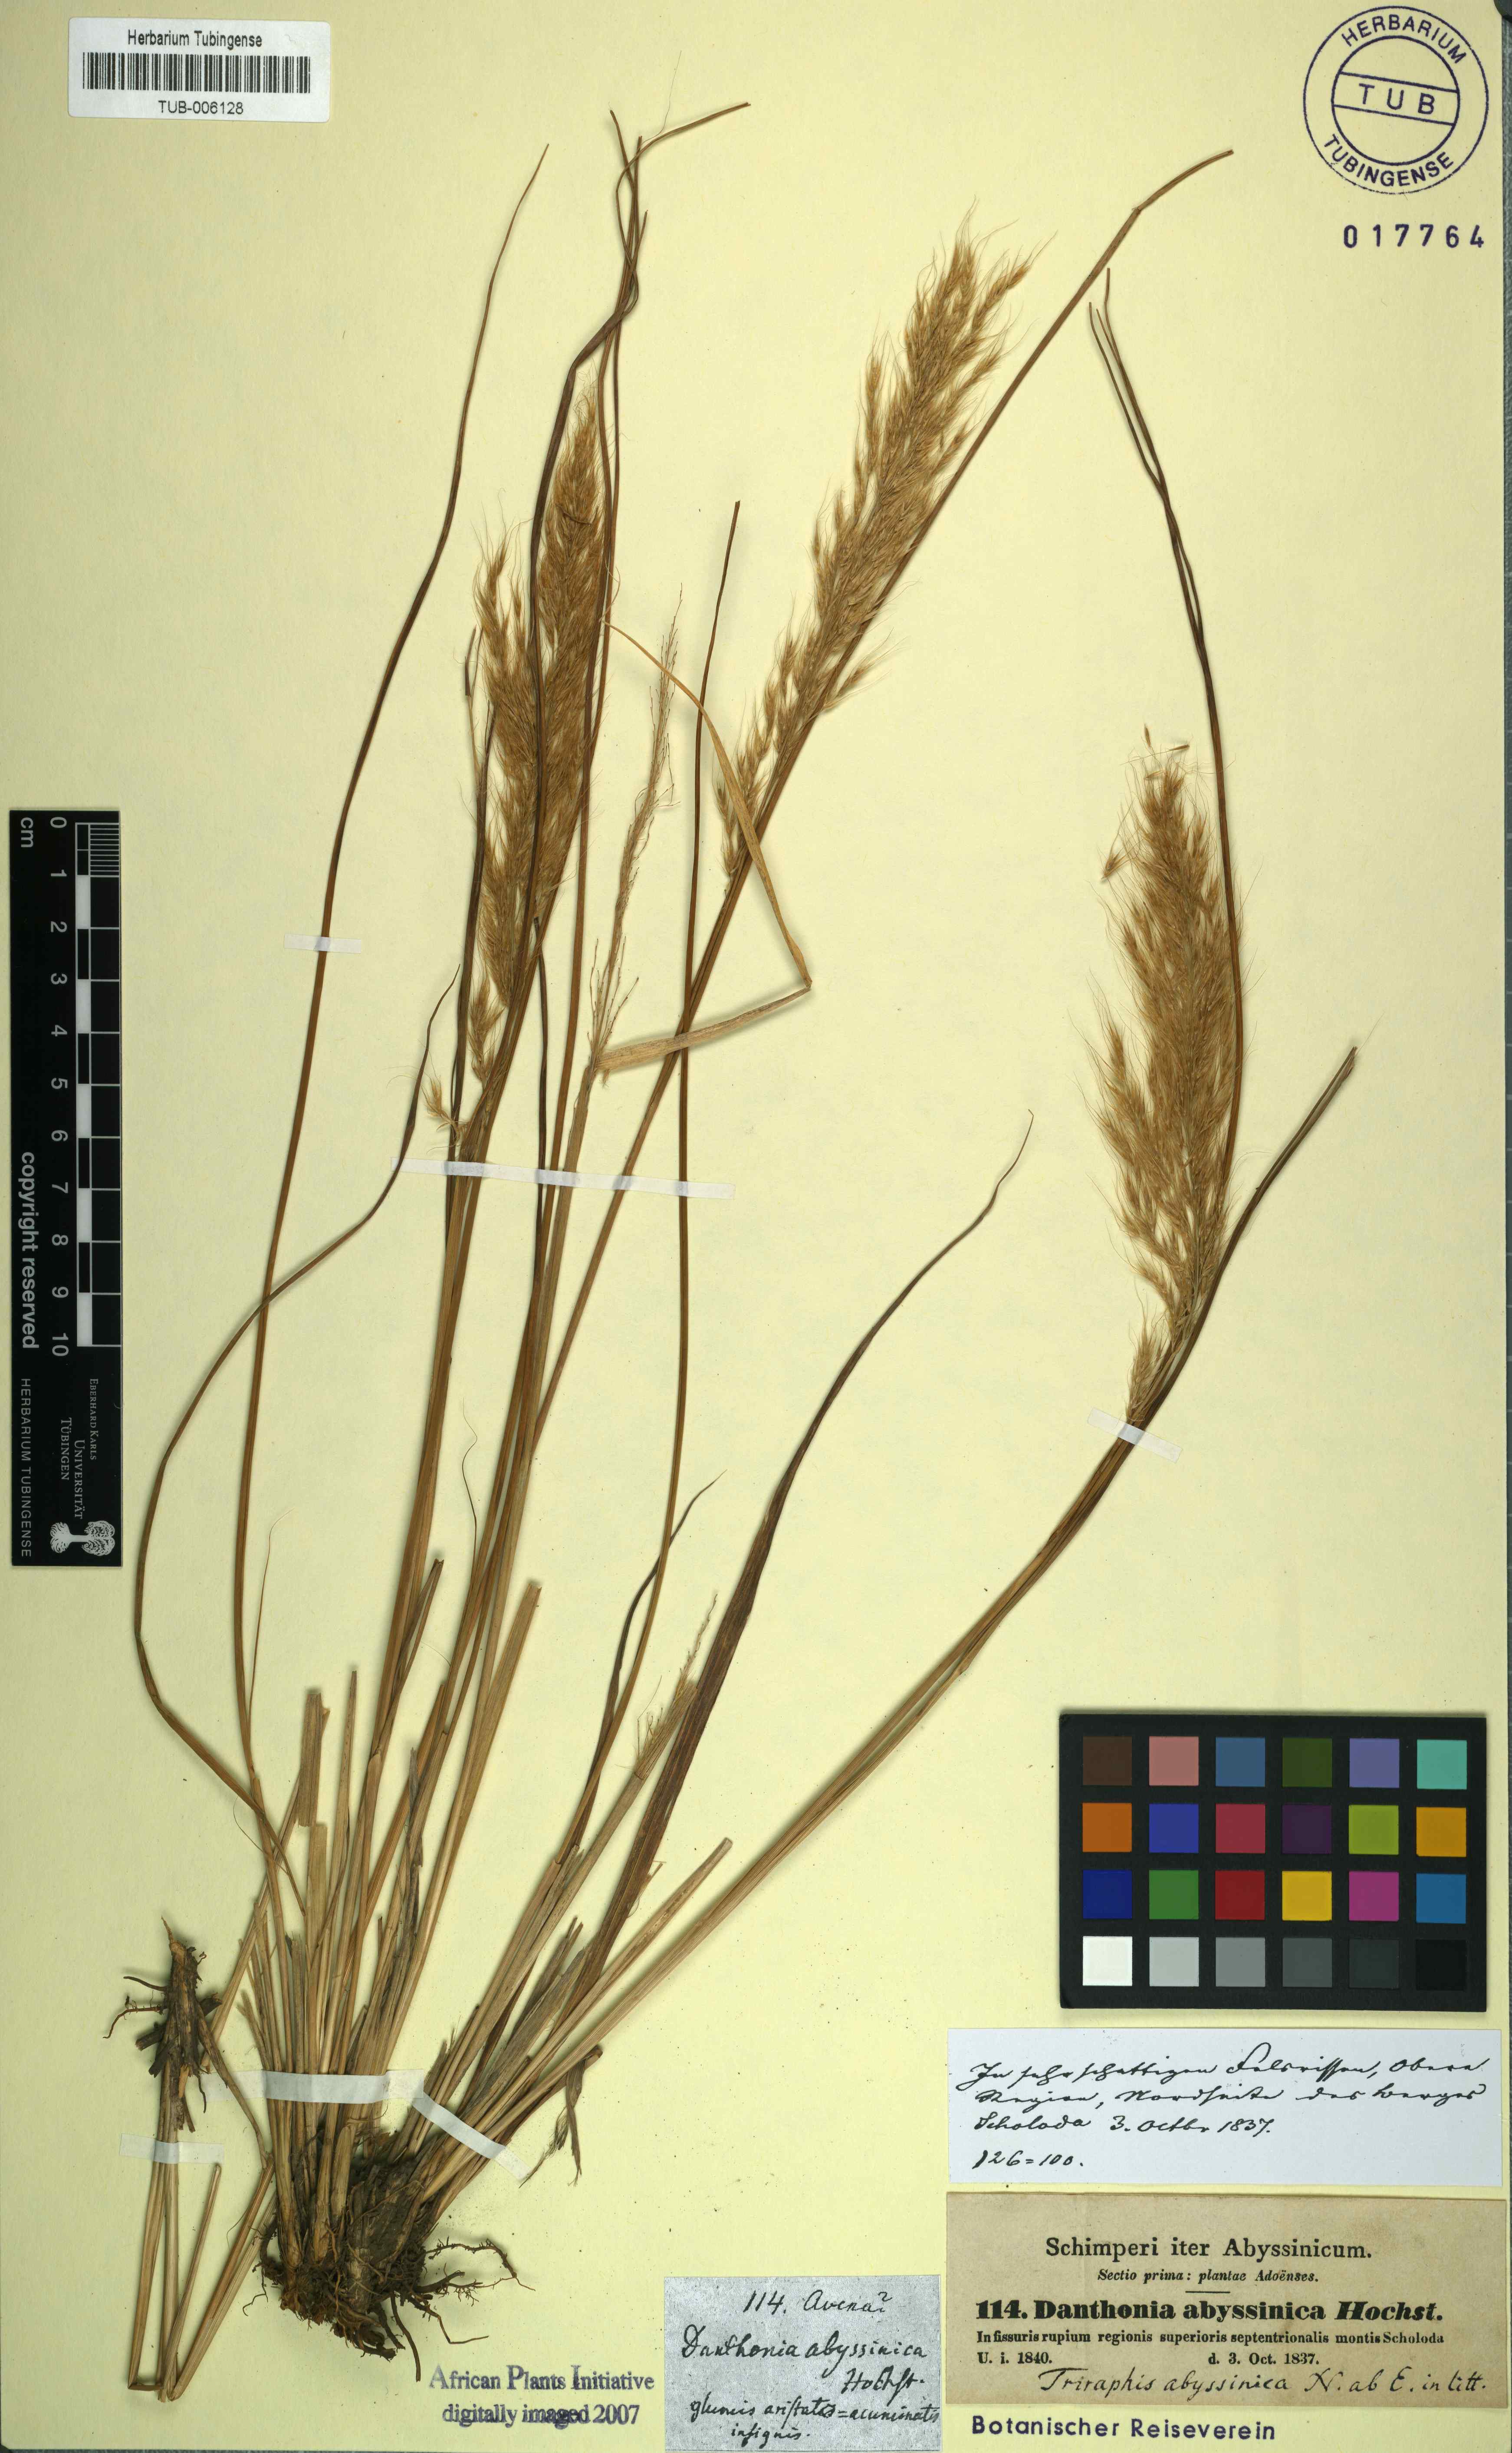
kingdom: Plantae
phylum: Tracheophyta
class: Liliopsida
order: Poales
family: Poaceae
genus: Crinipes
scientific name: Crinipes abyssinicus
